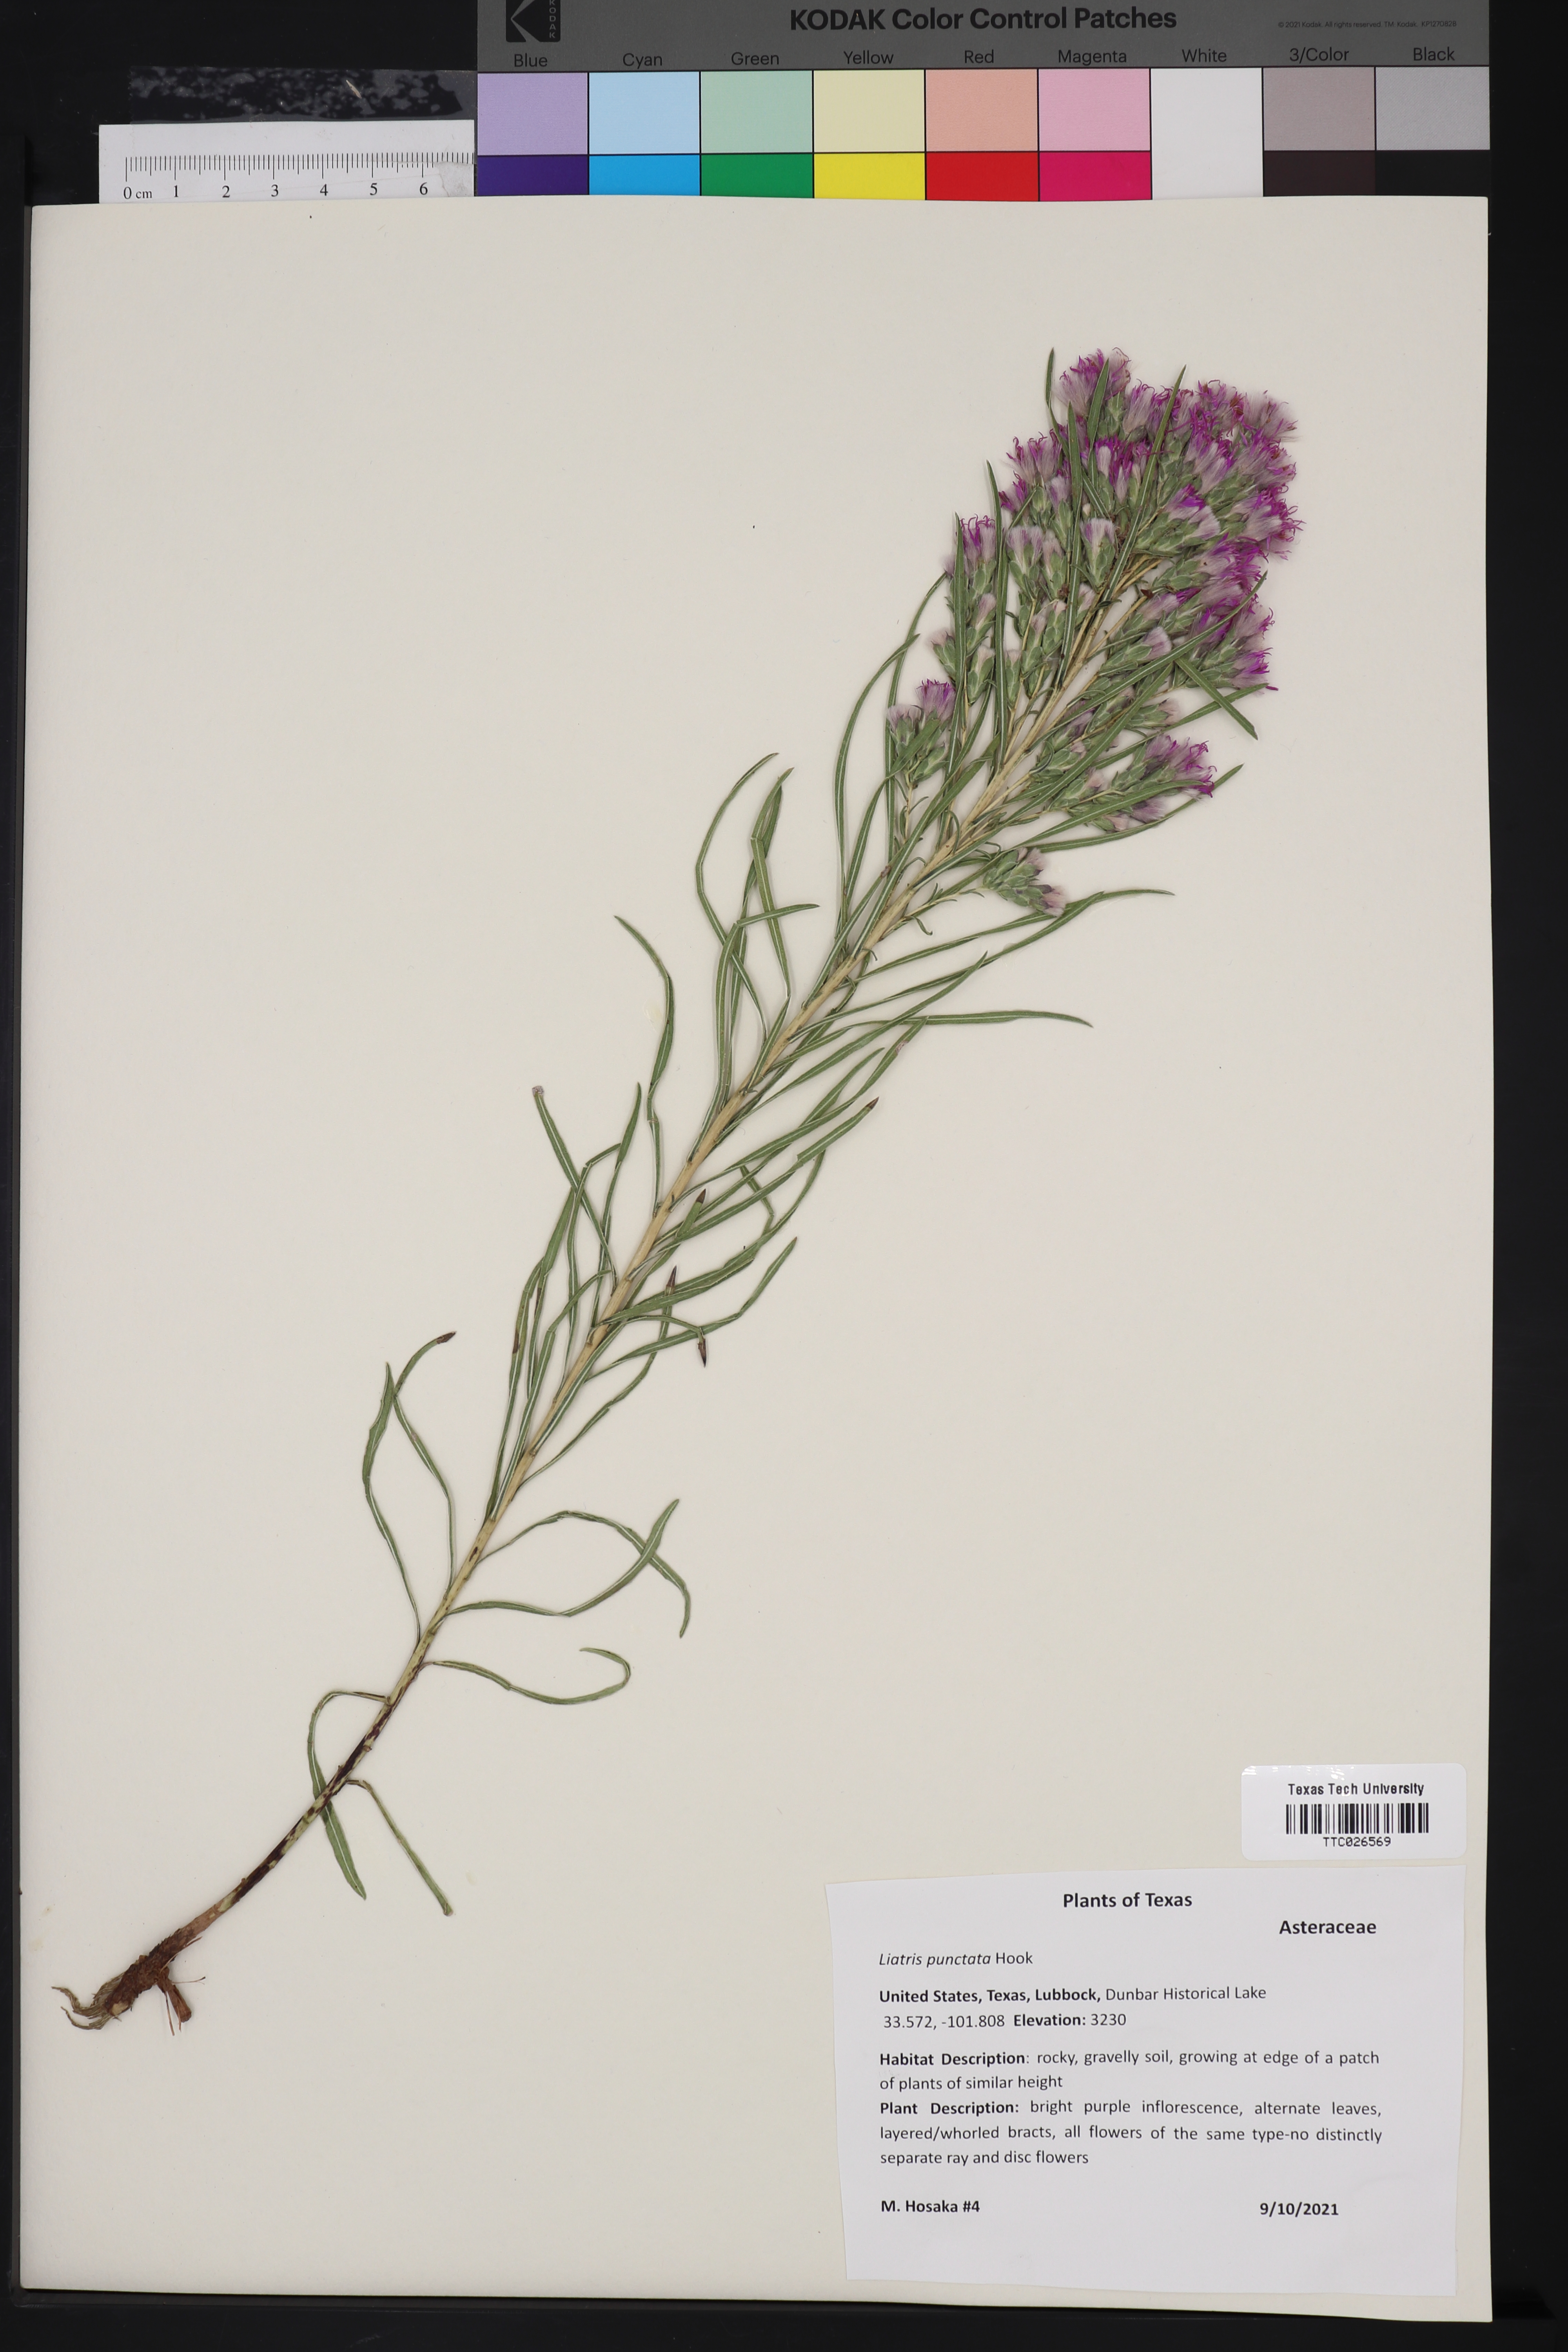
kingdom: Plantae
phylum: Tracheophyta
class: Magnoliopsida
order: Asterales
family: Asteraceae
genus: Liatris
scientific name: Liatris punctata
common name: Dotted gayfeather
